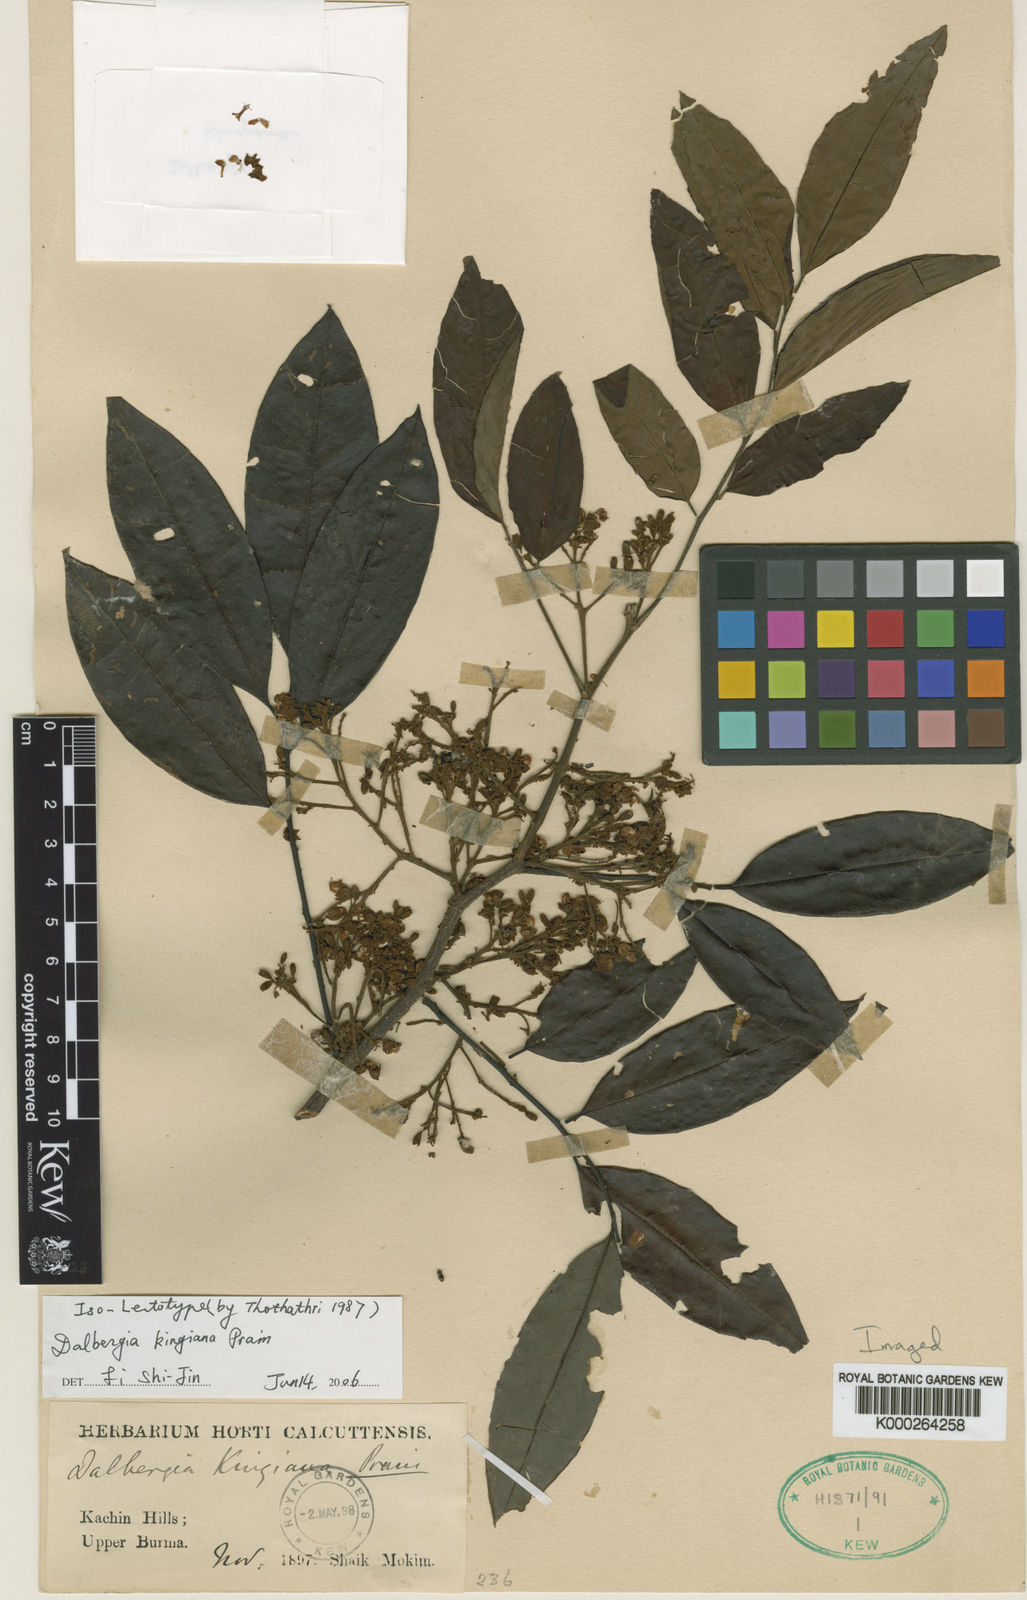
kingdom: Plantae
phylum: Tracheophyta
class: Magnoliopsida
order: Fabales
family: Fabaceae
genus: Dalbergia
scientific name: Dalbergia kingiana
